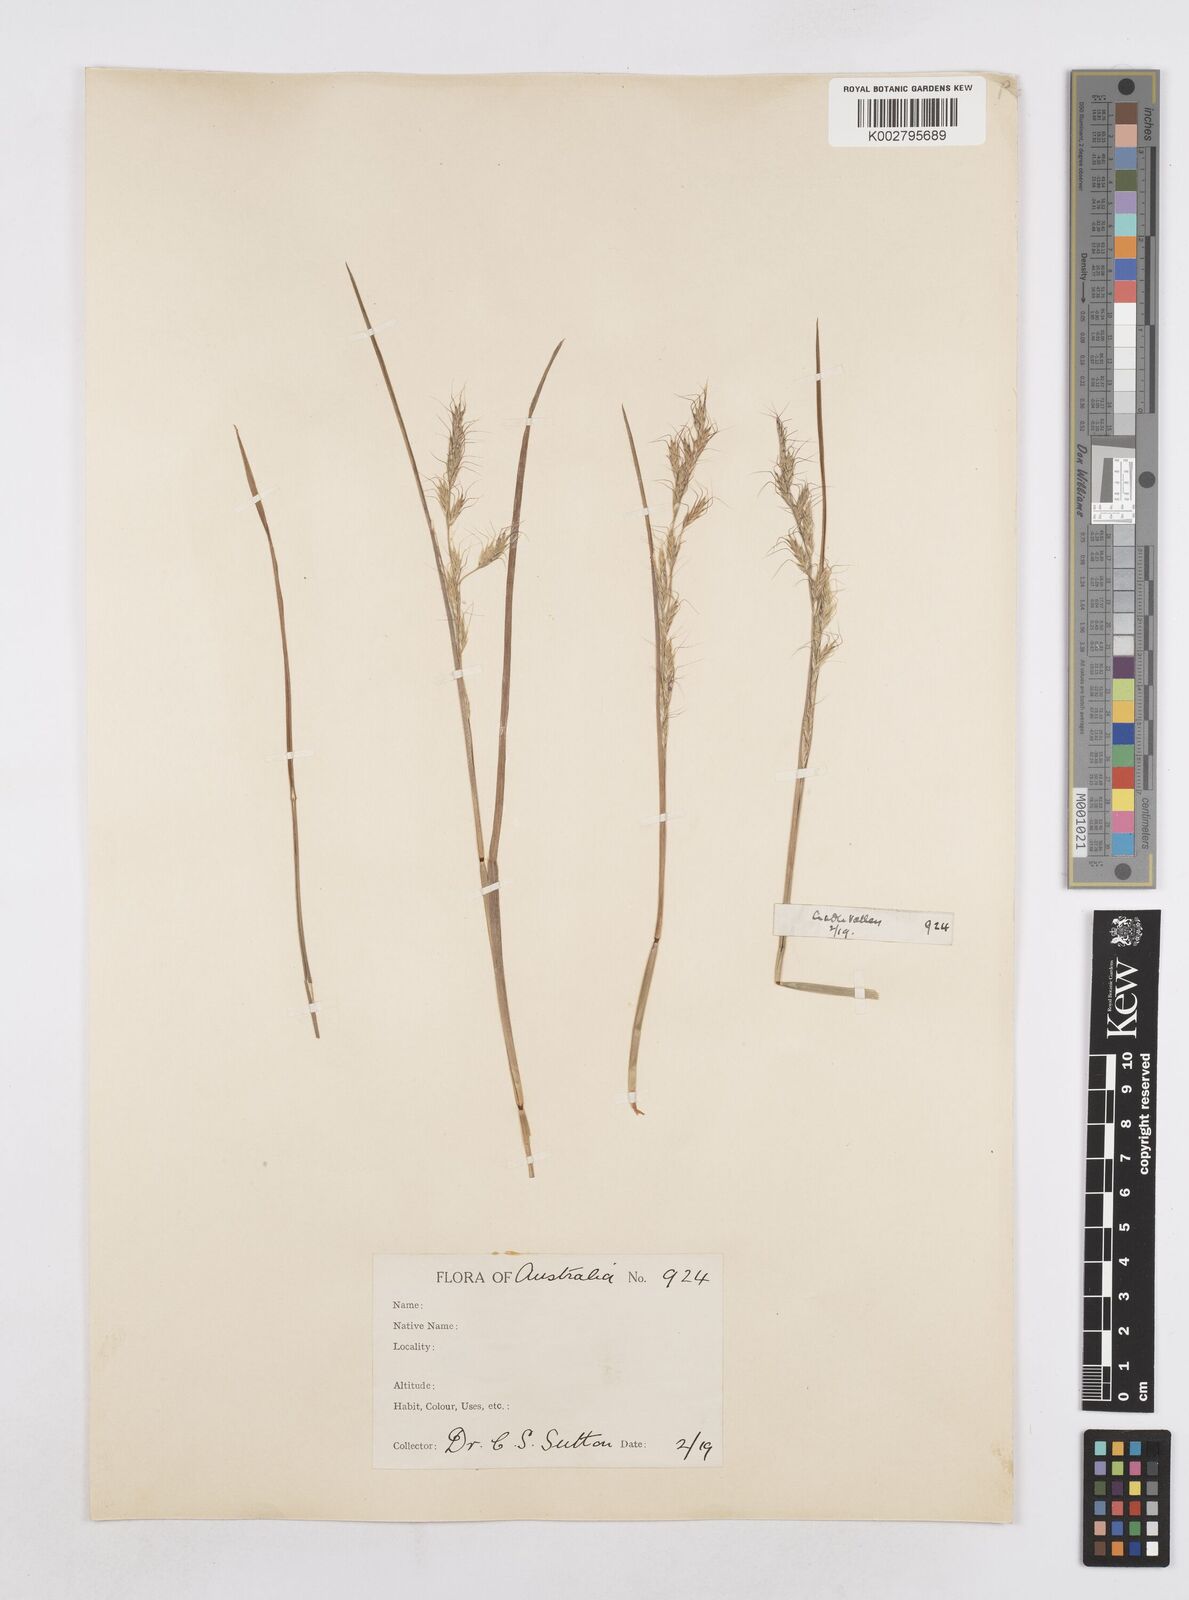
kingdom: Plantae
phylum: Tracheophyta
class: Liliopsida
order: Poales
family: Poaceae
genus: Amphibromus
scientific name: Amphibromus neesii
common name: Australian wallaby grass
